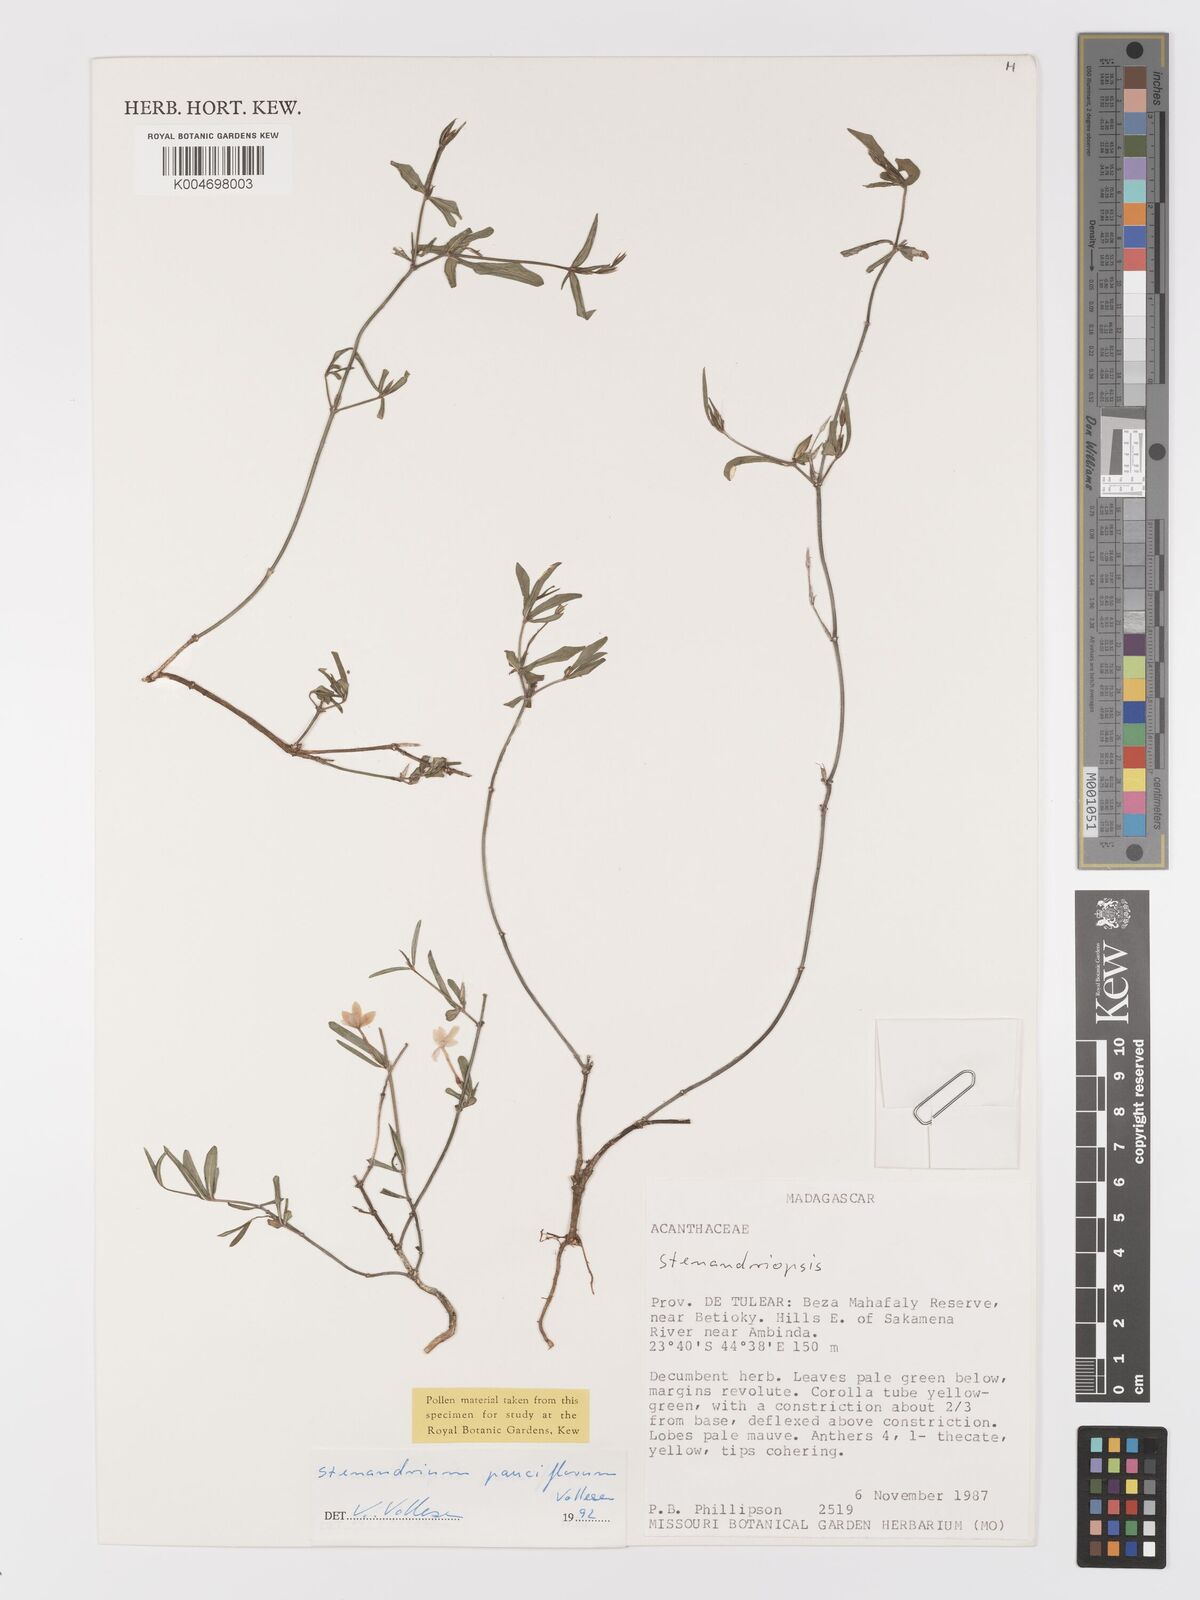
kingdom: Plantae
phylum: Tracheophyta
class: Magnoliopsida
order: Lamiales
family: Acanthaceae
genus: Stenandriopsis
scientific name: Stenandriopsis
